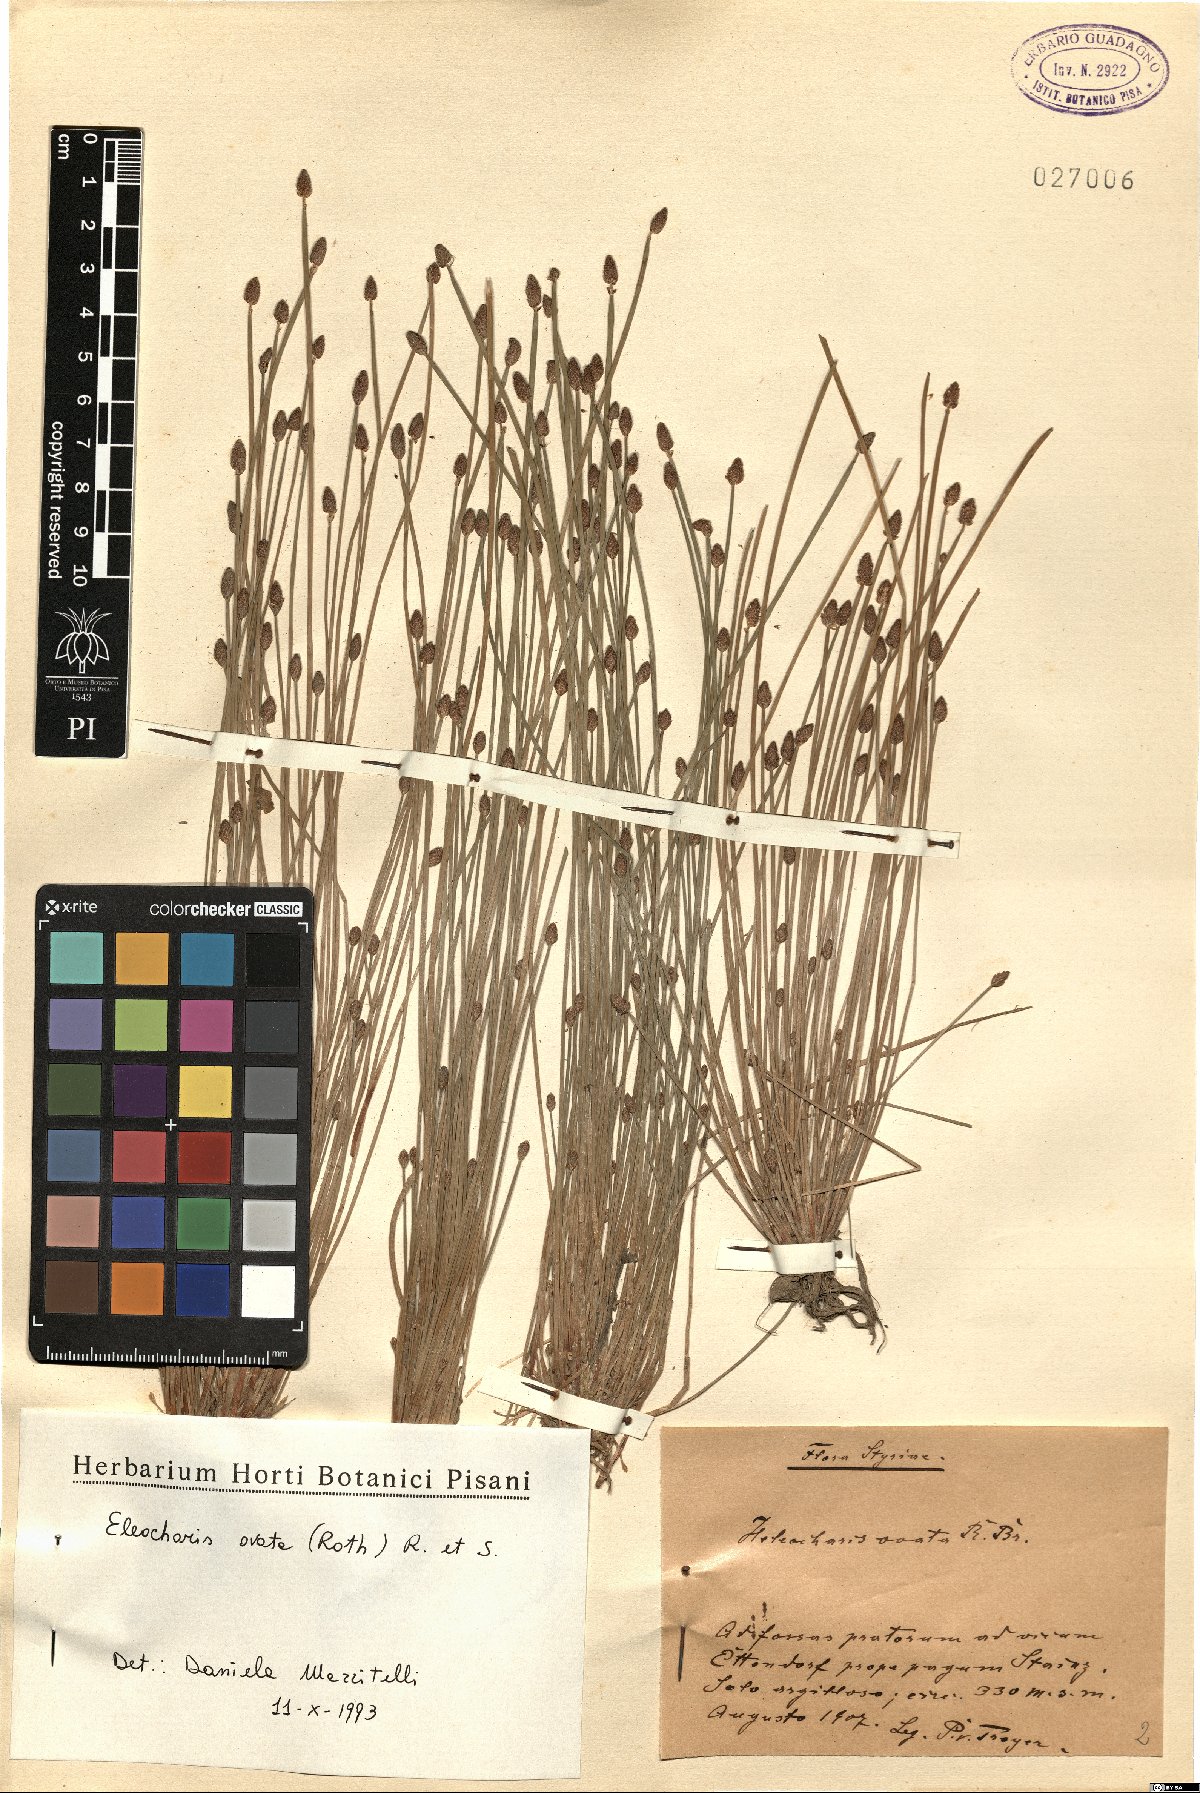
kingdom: Plantae
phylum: Tracheophyta
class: Liliopsida
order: Poales
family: Cyperaceae
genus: Eleocharis
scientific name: Eleocharis ovata
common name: Oval spike-rush
